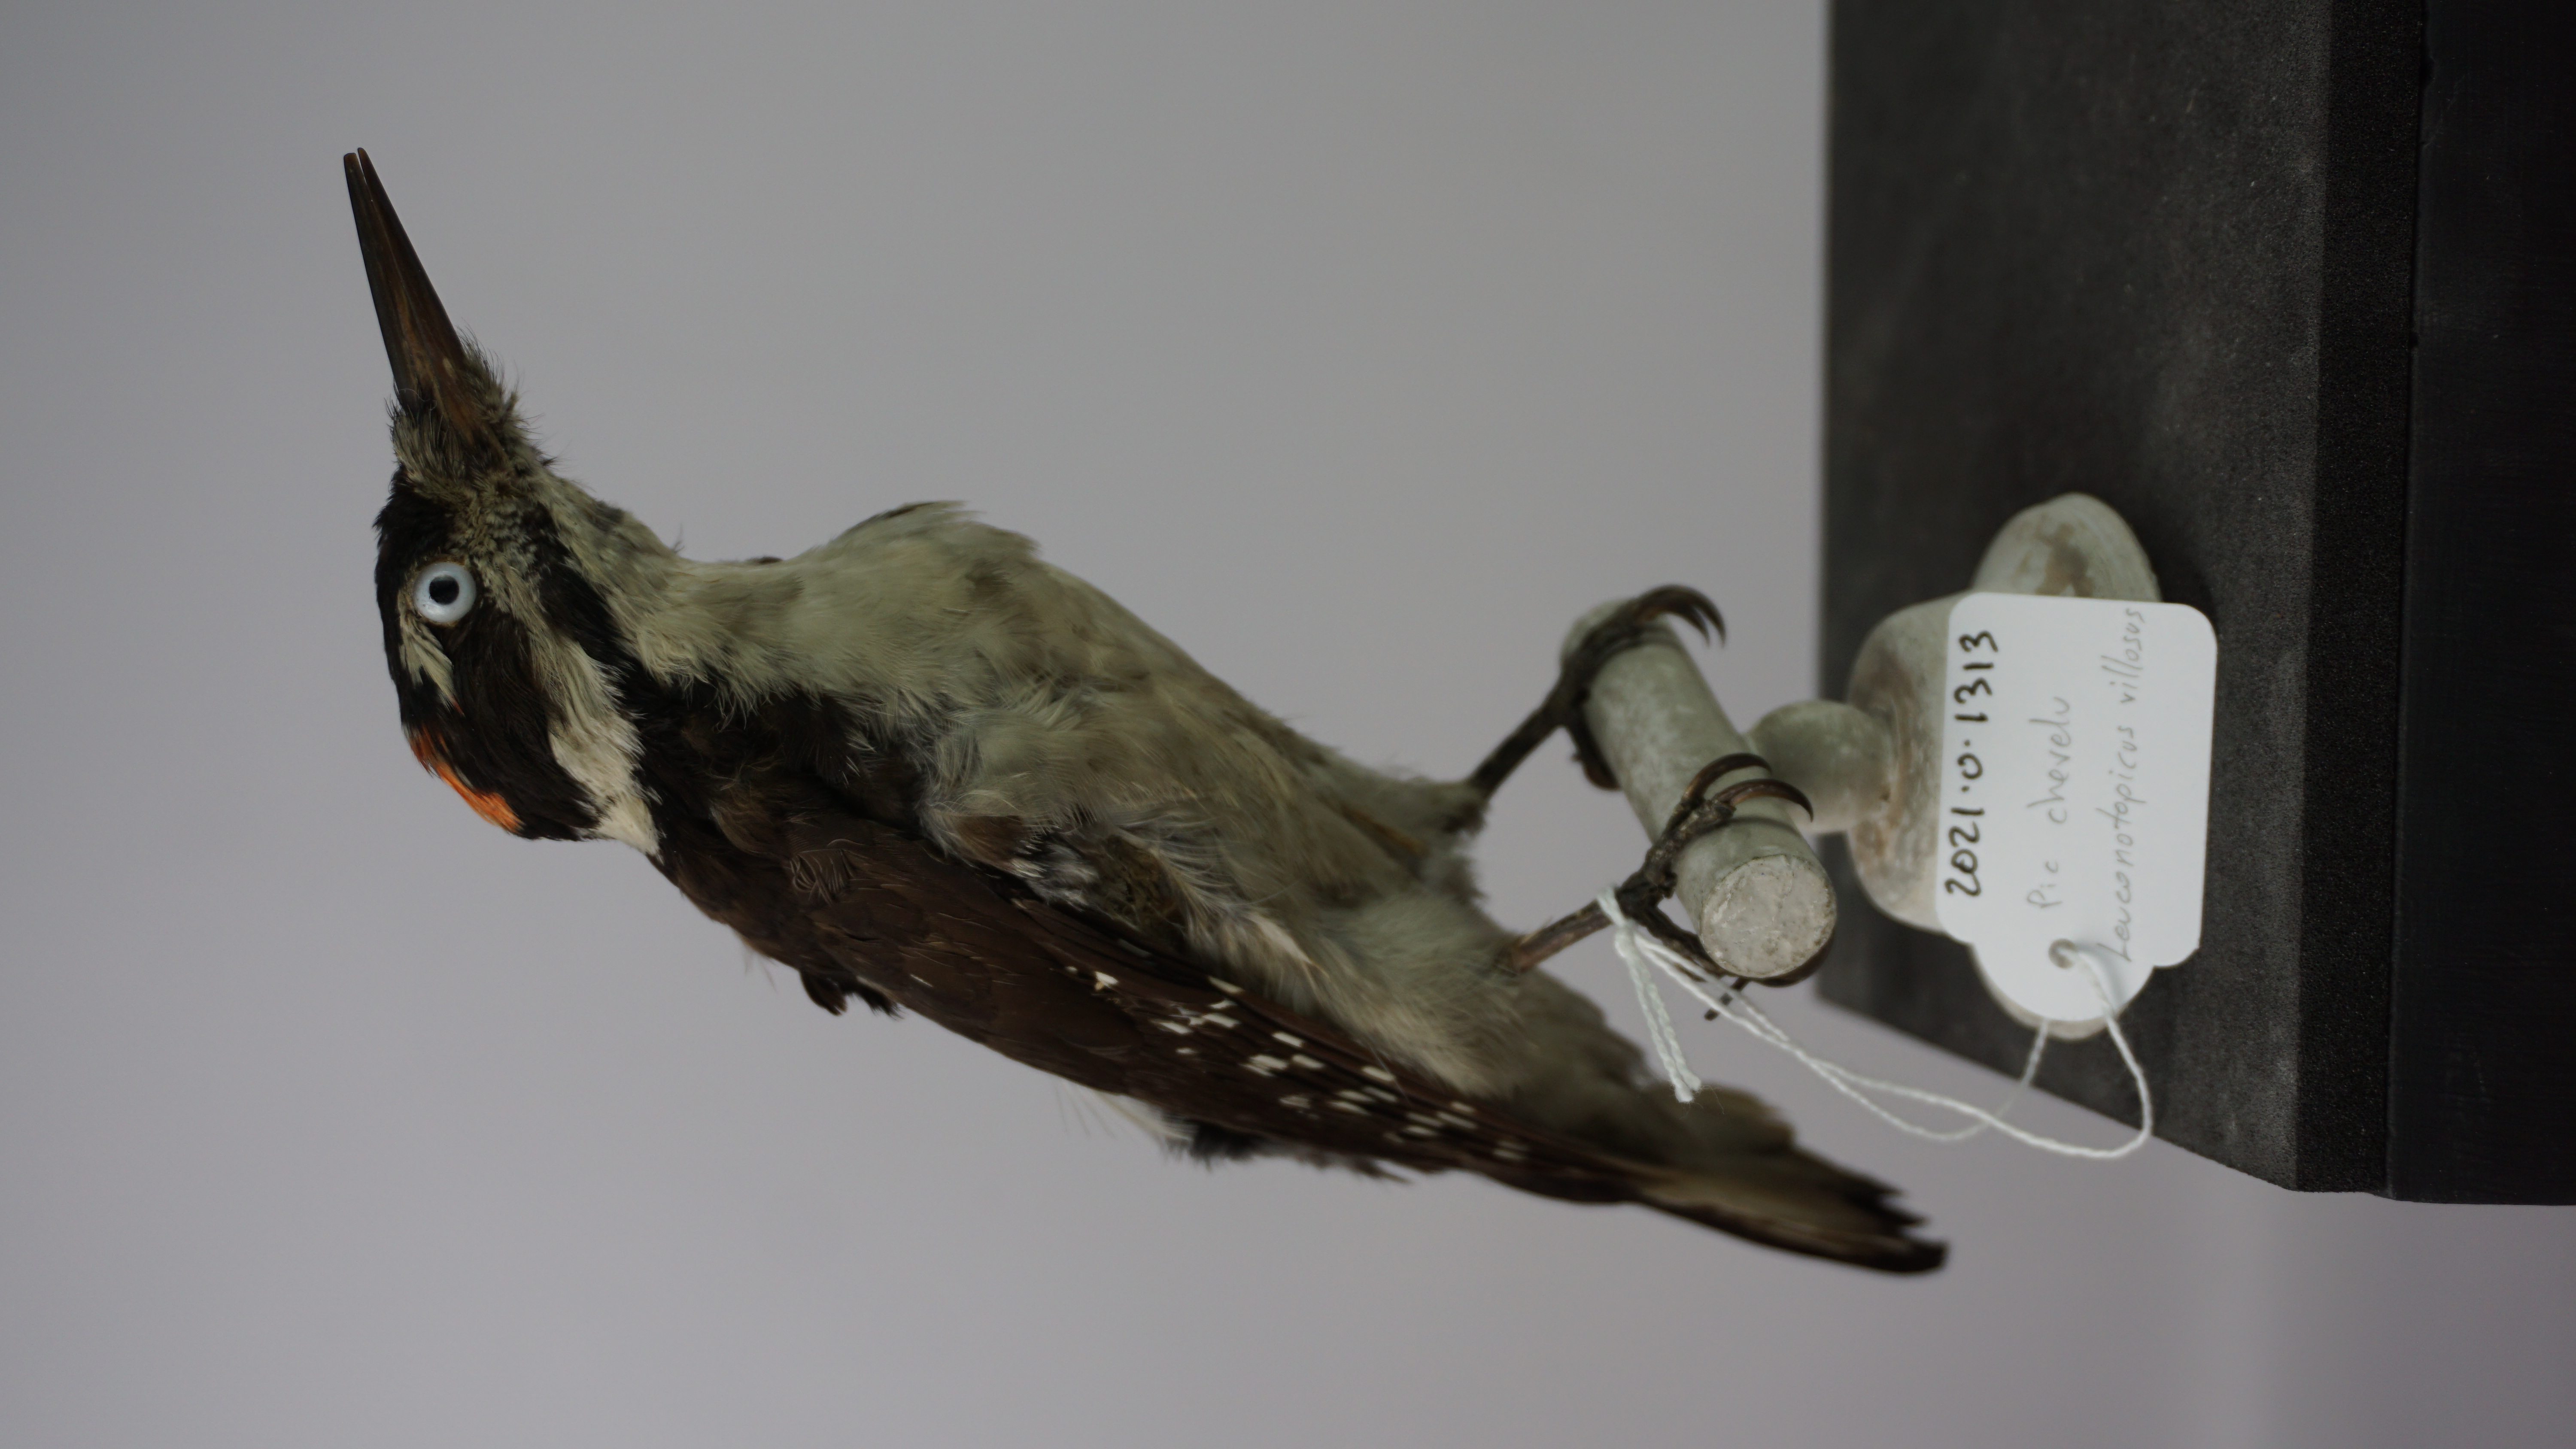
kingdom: Animalia
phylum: Chordata
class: Aves
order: Piciformes
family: Picidae
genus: Leuconotopicus
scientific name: Leuconotopicus villosus
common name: Hairy woodpecker
